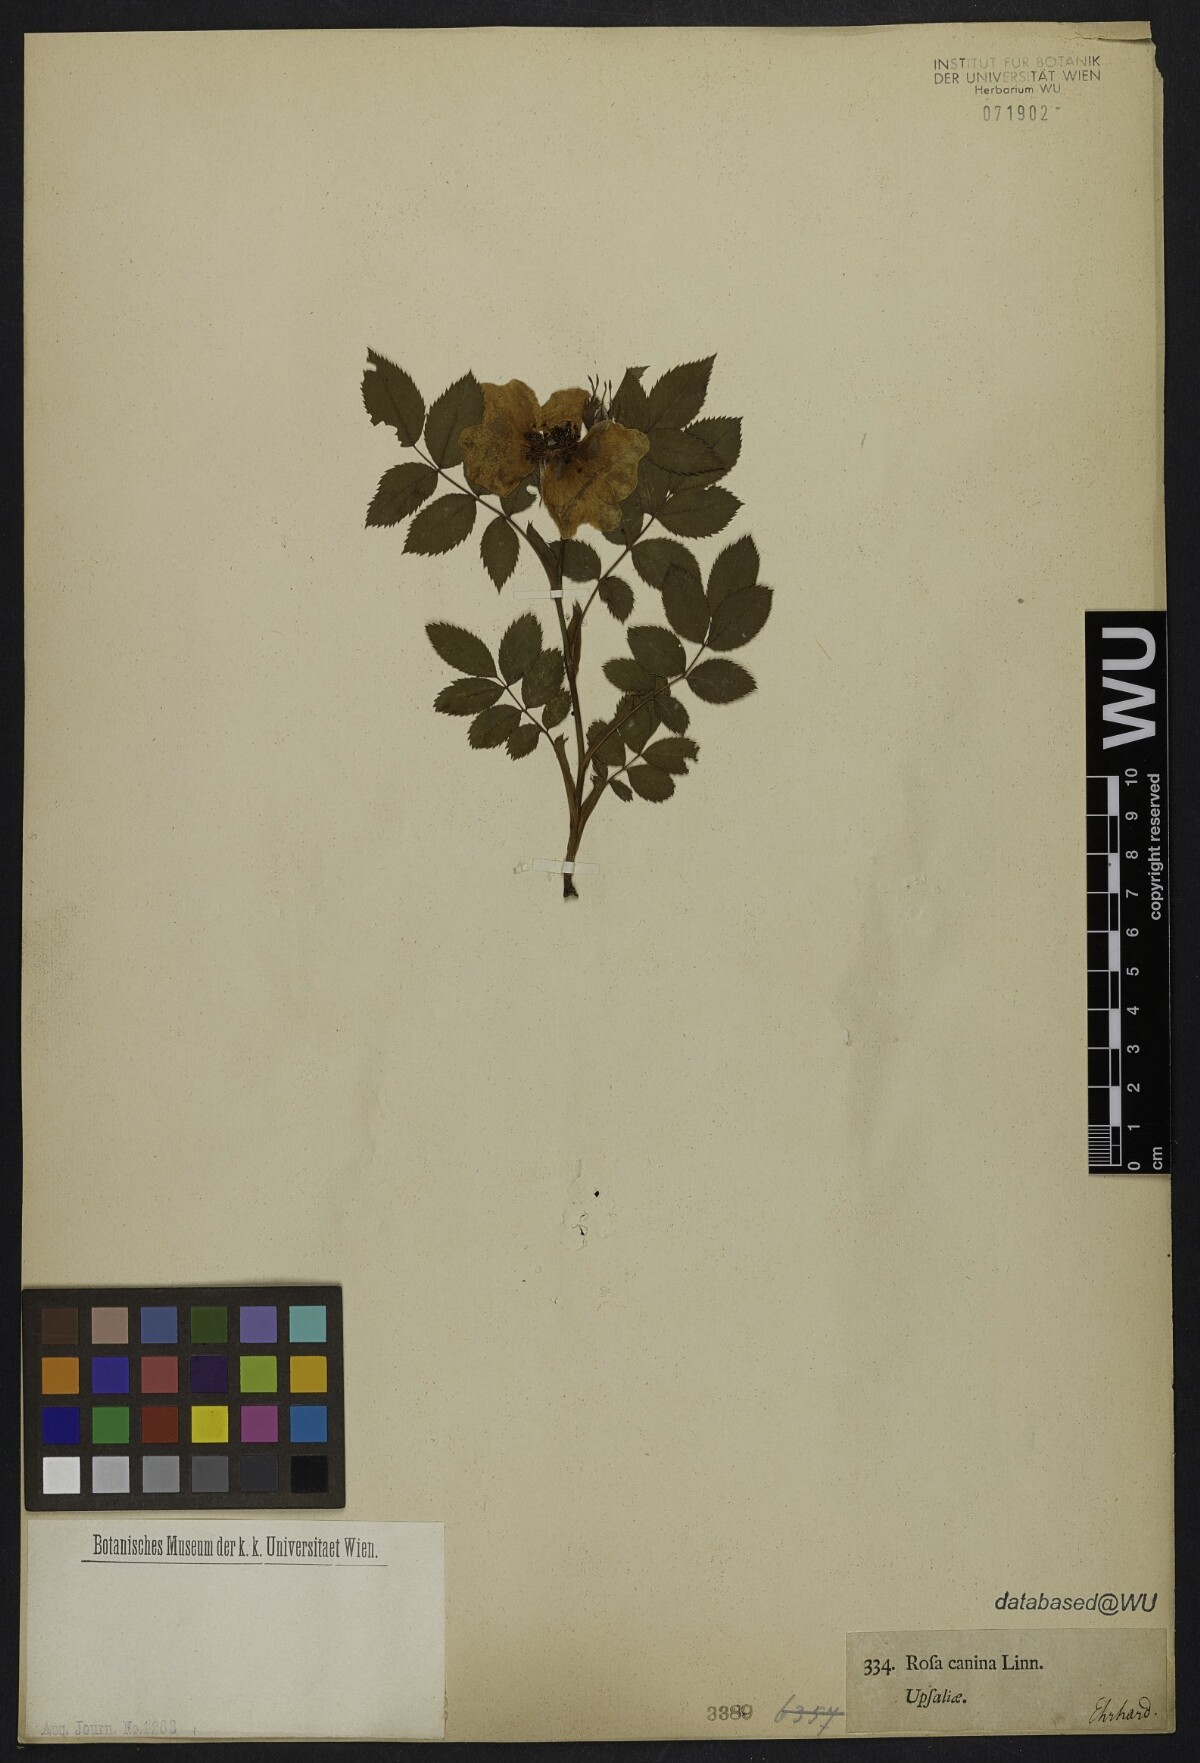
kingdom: Plantae
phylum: Tracheophyta
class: Magnoliopsida
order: Rosales
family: Rosaceae
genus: Rosa
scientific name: Rosa canina
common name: Dog rose
